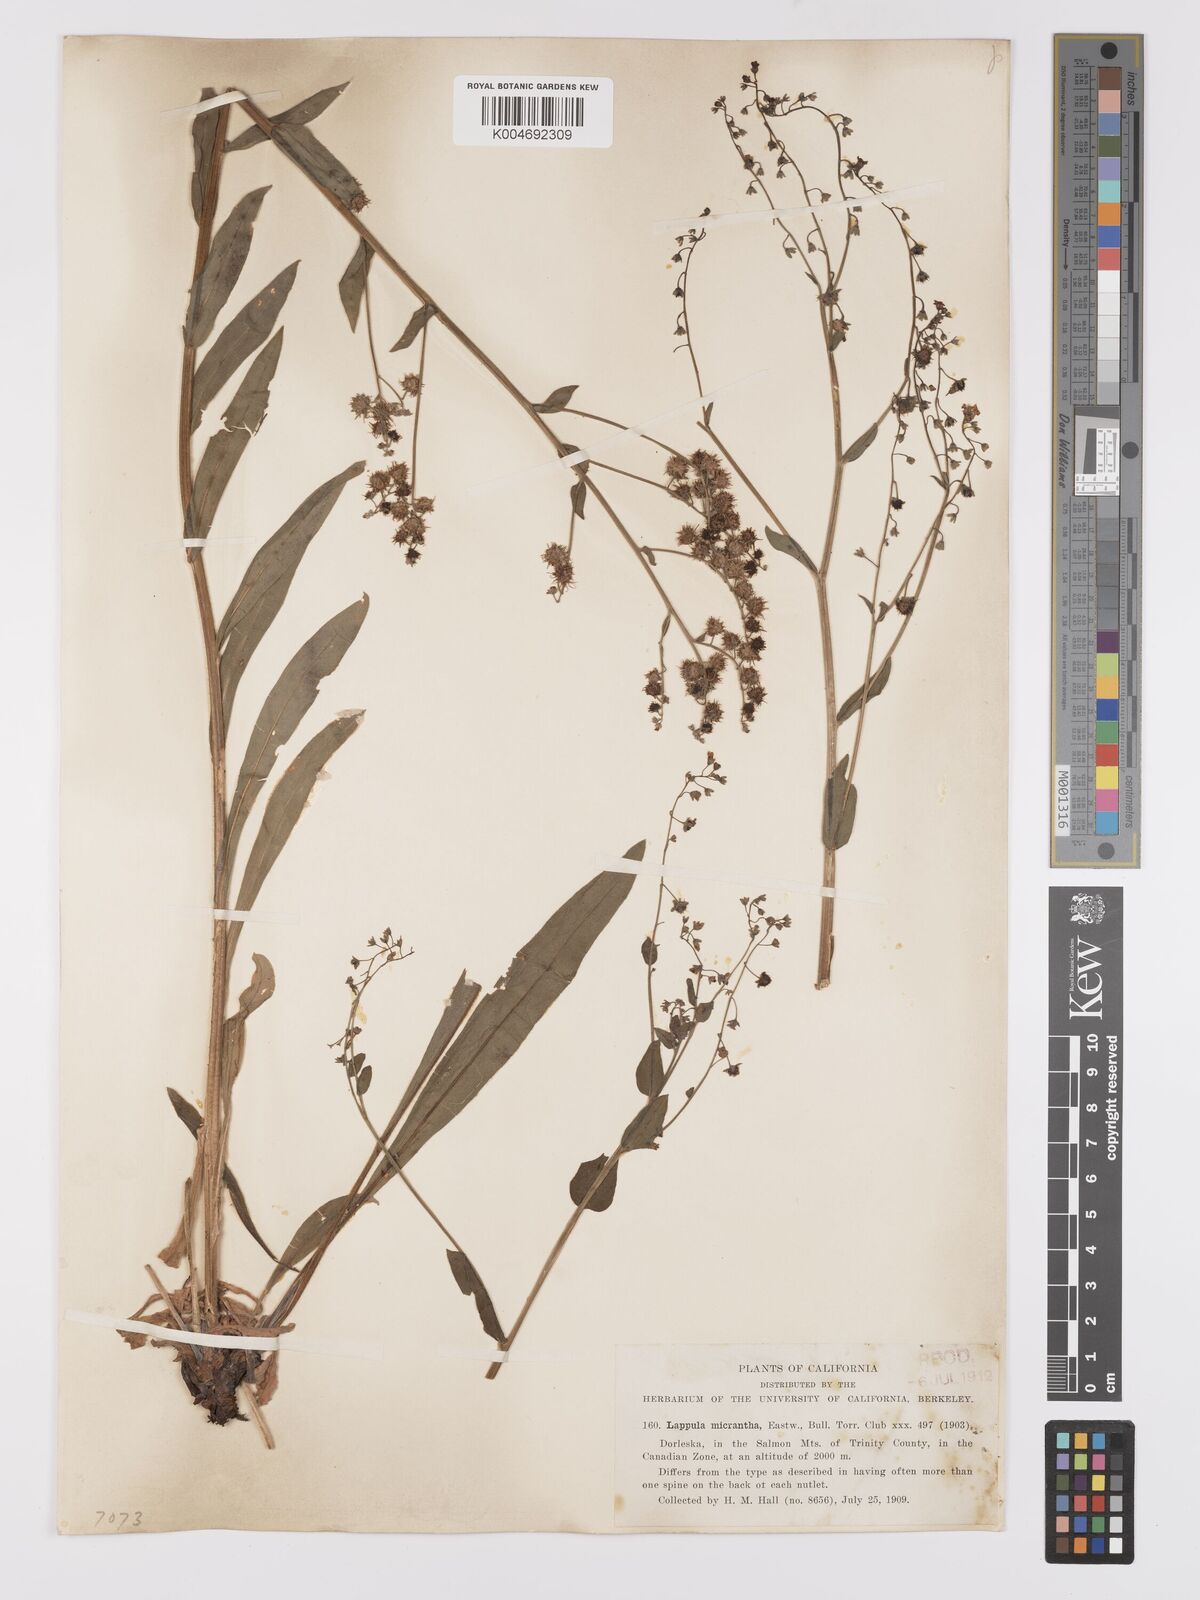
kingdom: Plantae
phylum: Tracheophyta
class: Magnoliopsida
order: Boraginales
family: Boraginaceae
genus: Hackelia
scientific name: Hackelia diffusa
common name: Spreading hackelia
